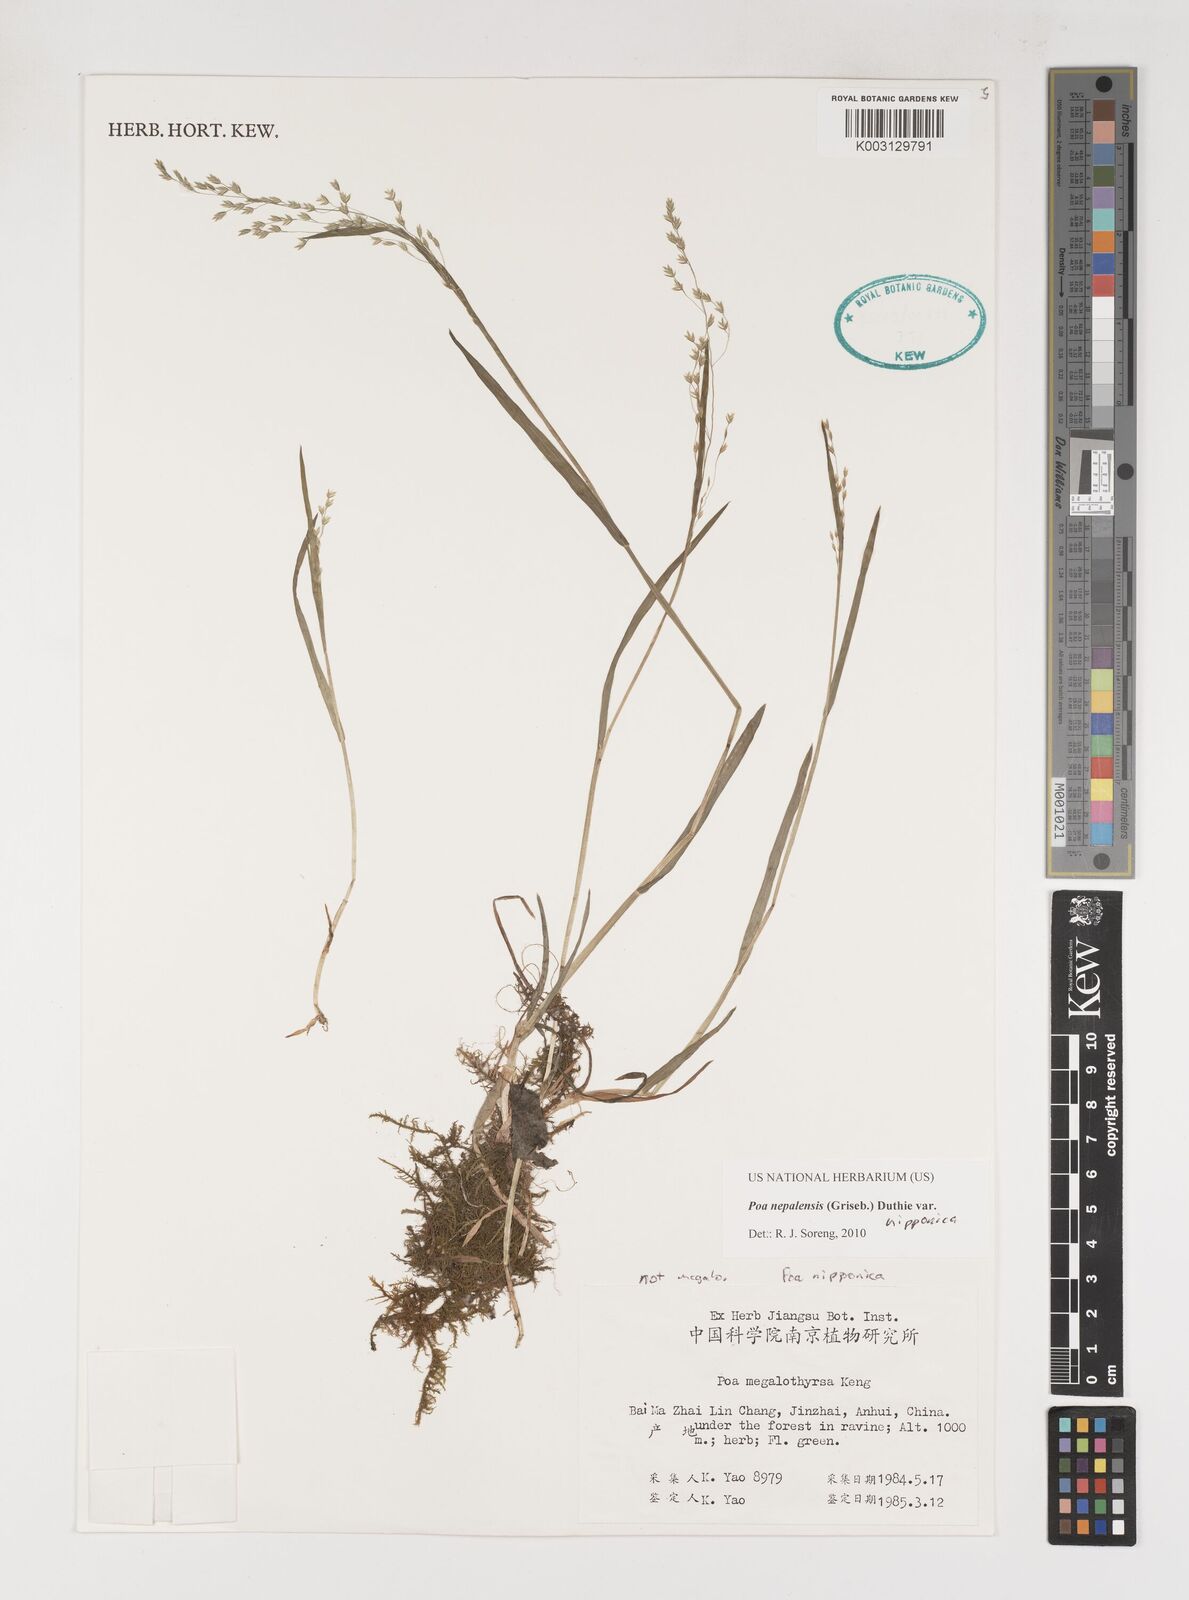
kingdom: Plantae
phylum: Tracheophyta
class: Liliopsida
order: Poales
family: Poaceae
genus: Poa
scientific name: Poa nepalensis
